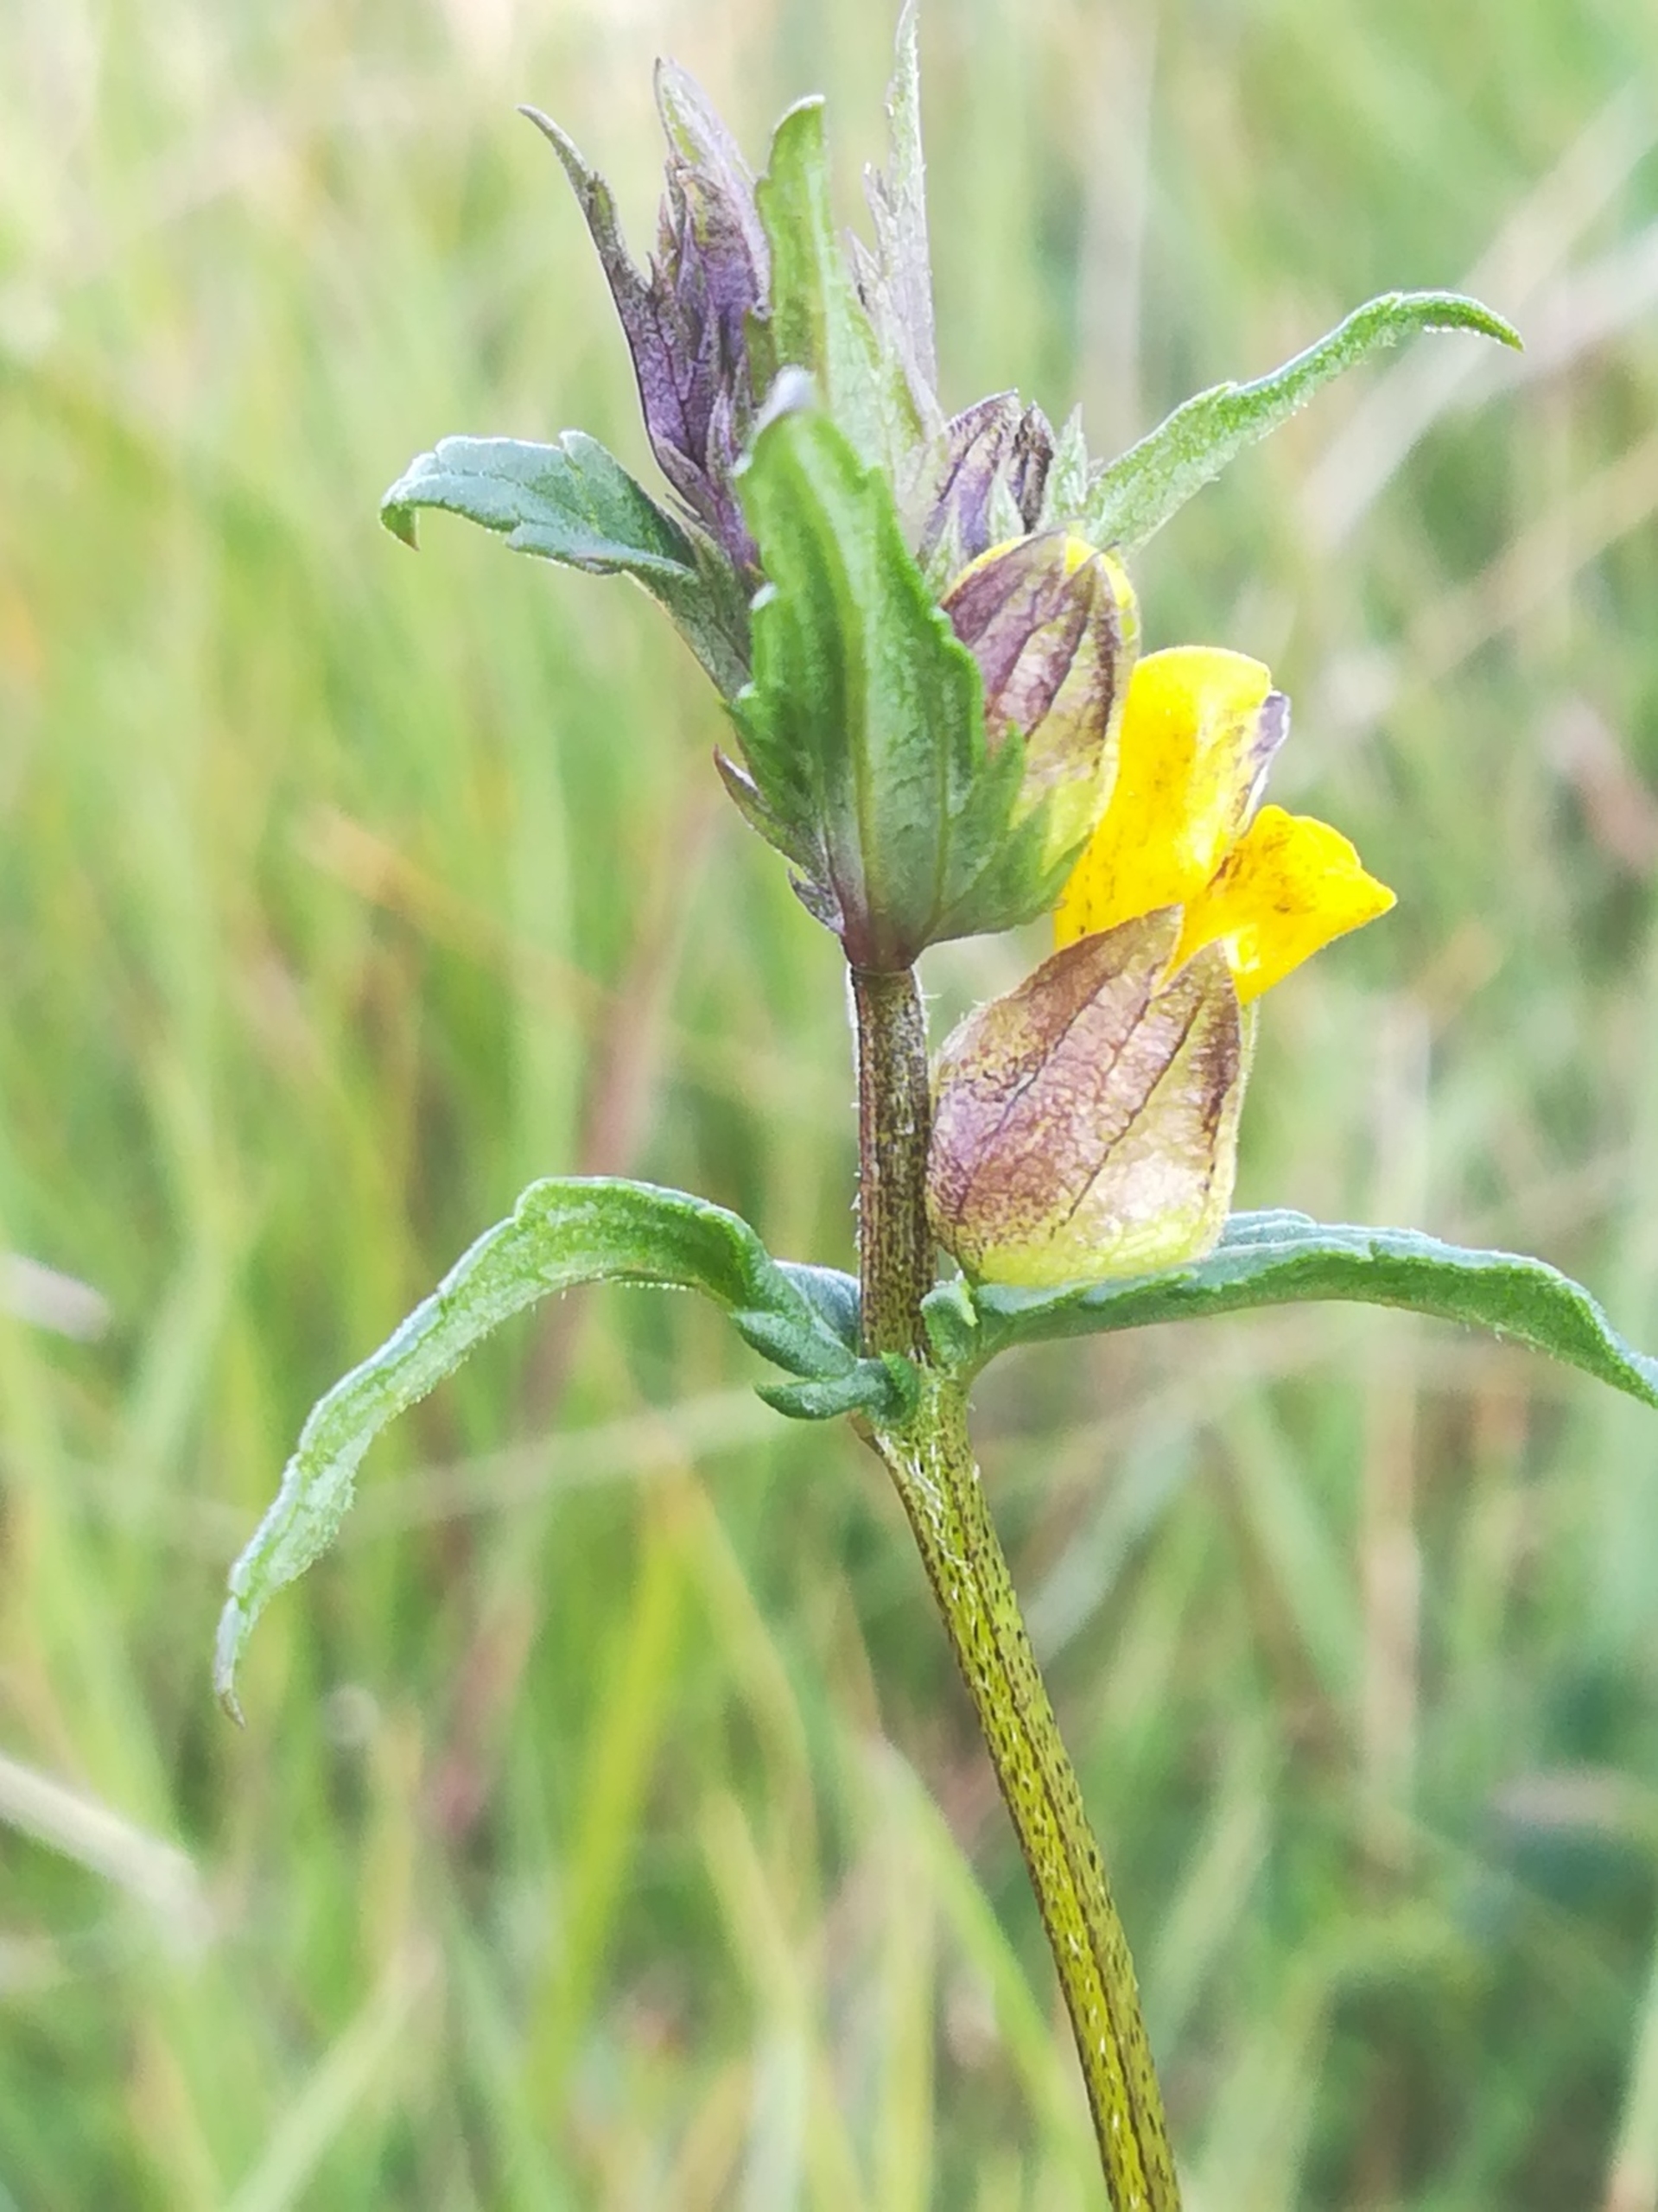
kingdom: Plantae
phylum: Tracheophyta
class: Magnoliopsida
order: Lamiales
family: Orobanchaceae
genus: Rhinanthus
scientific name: Rhinanthus minor
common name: Liden skjaller
